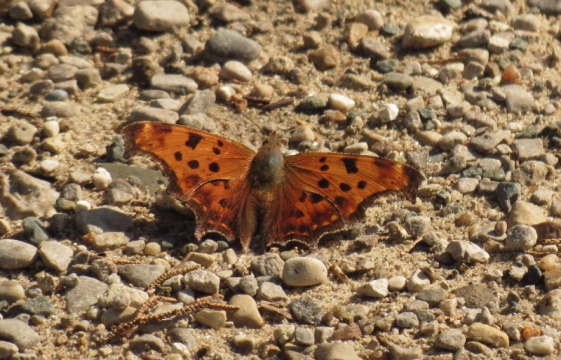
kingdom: Animalia
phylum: Arthropoda
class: Insecta
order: Lepidoptera
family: Nymphalidae
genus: Polygonia
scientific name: Polygonia comma
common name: Eastern Comma
